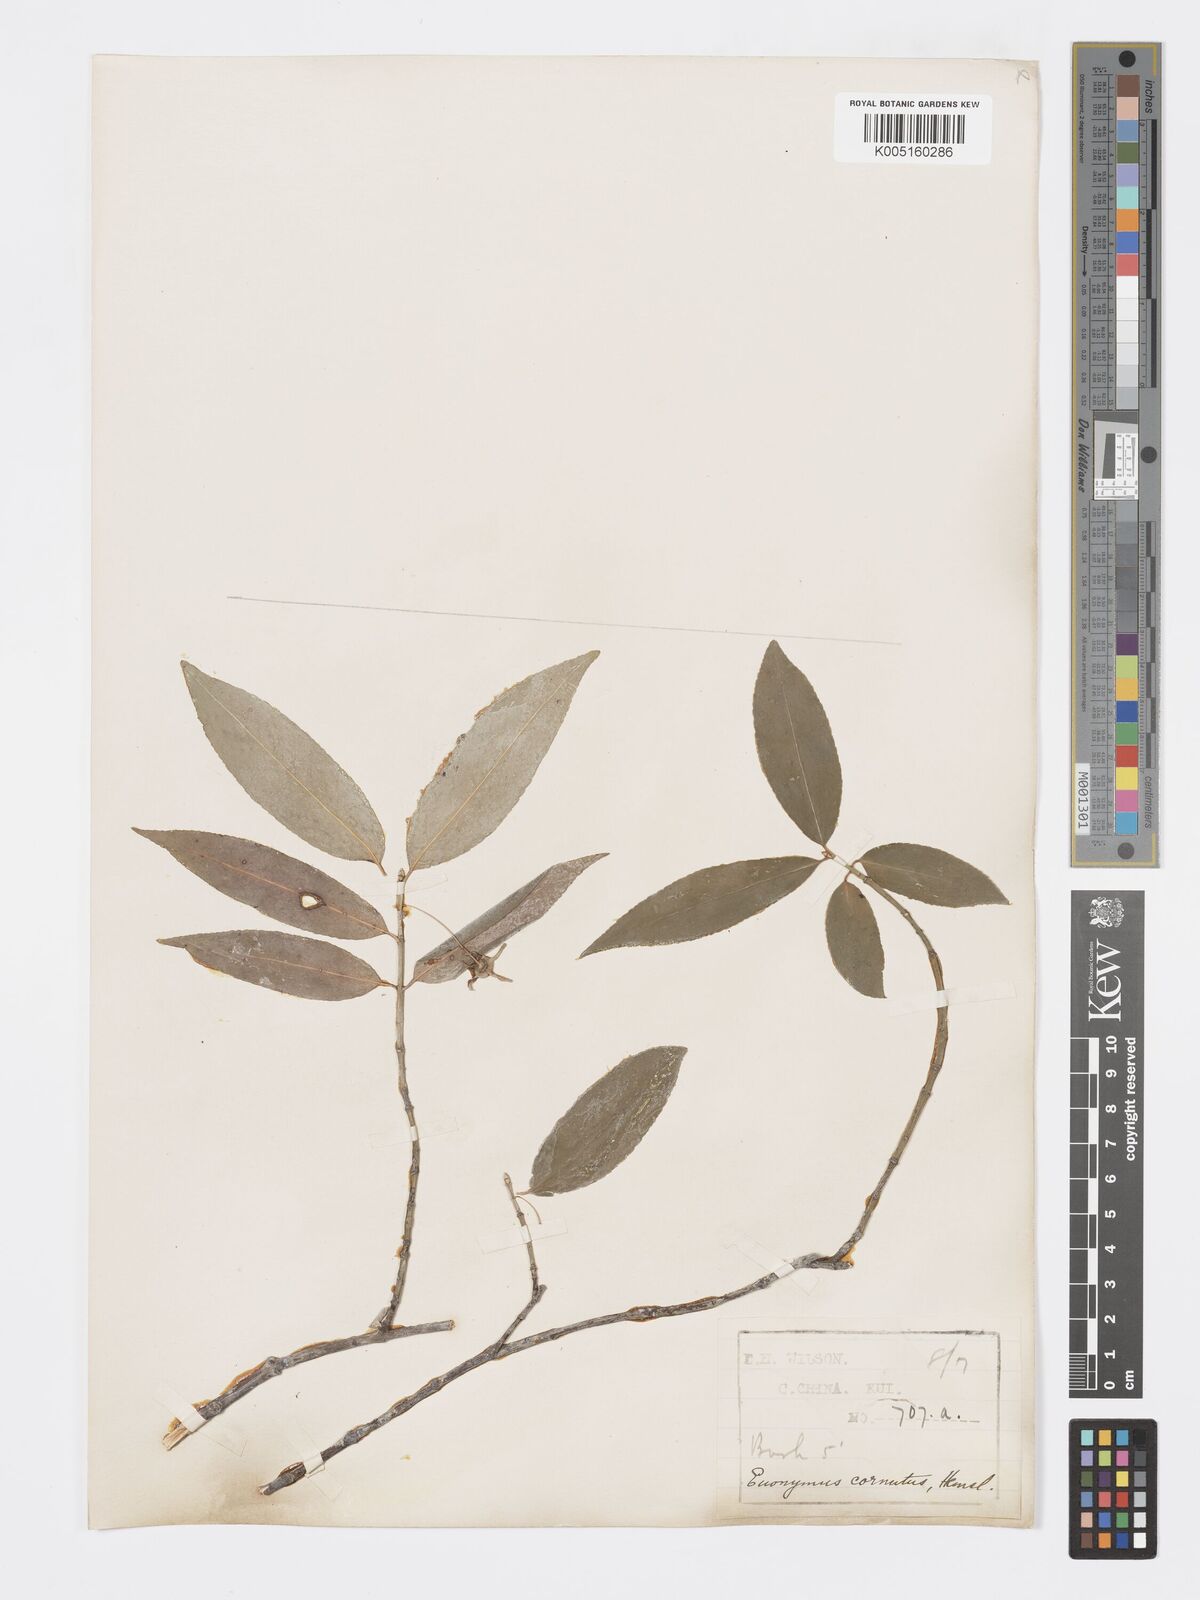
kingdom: Plantae
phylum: Tracheophyta
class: Magnoliopsida
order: Celastrales
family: Celastraceae
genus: Euonymus
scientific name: Euonymus
